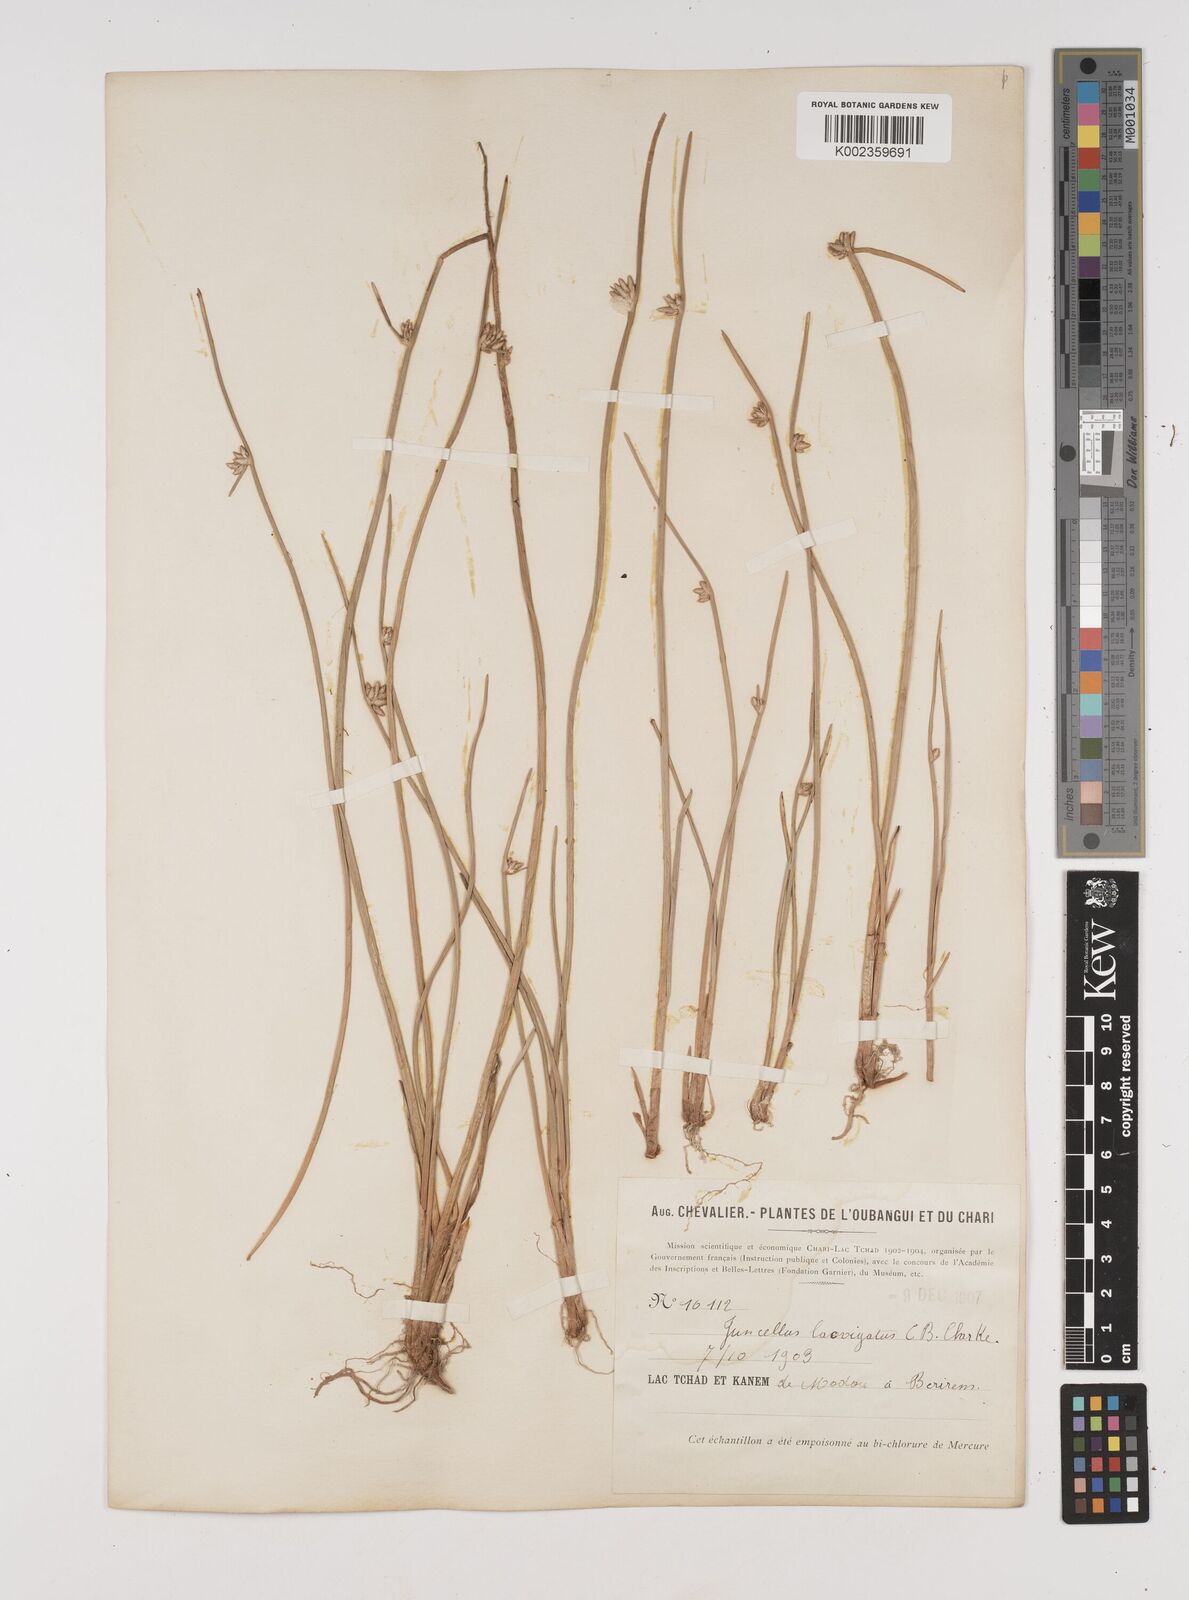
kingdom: Plantae
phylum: Tracheophyta
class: Liliopsida
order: Poales
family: Cyperaceae
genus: Cyperus
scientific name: Cyperus laevigatus
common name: Smooth flat sedge
